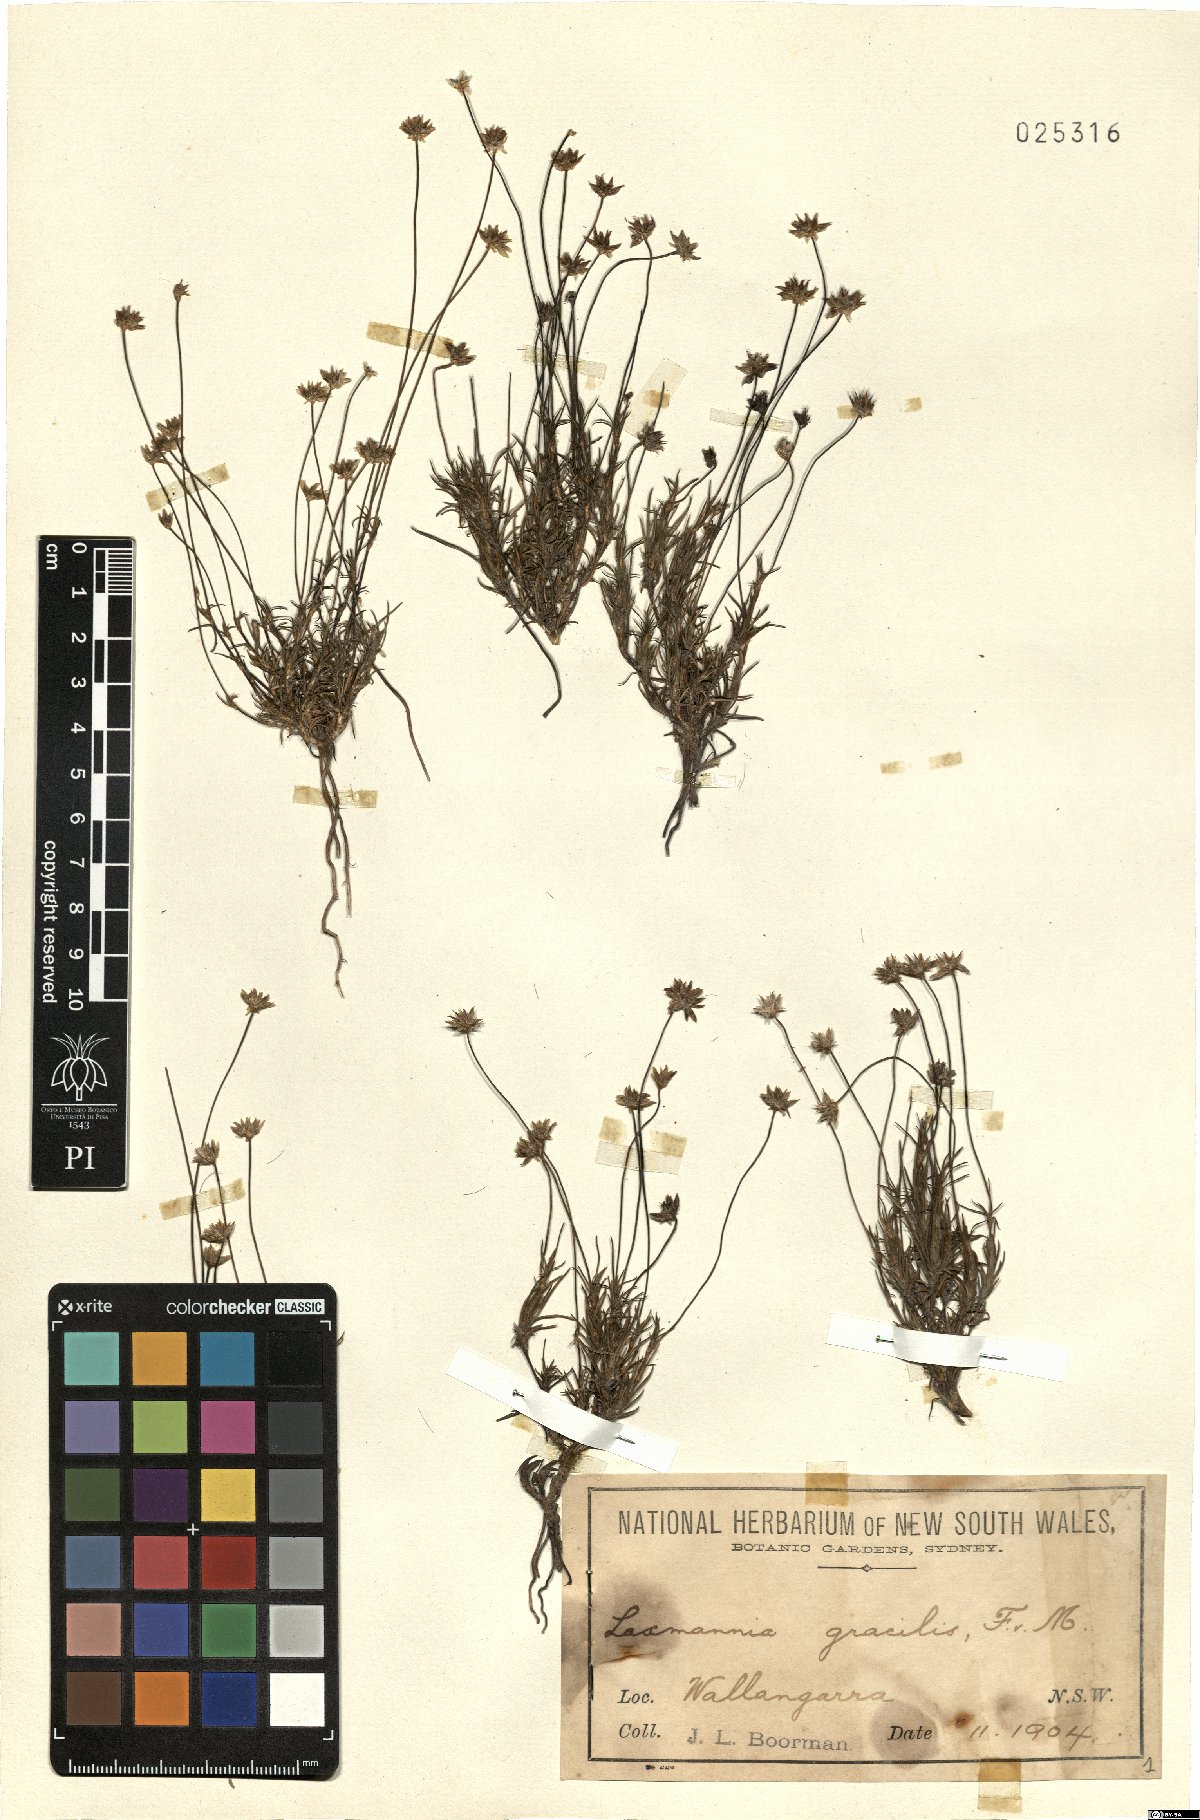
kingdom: Plantae
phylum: Tracheophyta
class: Liliopsida
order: Asparagales
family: Asparagaceae
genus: Laxmannia
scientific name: Laxmannia gracilis
